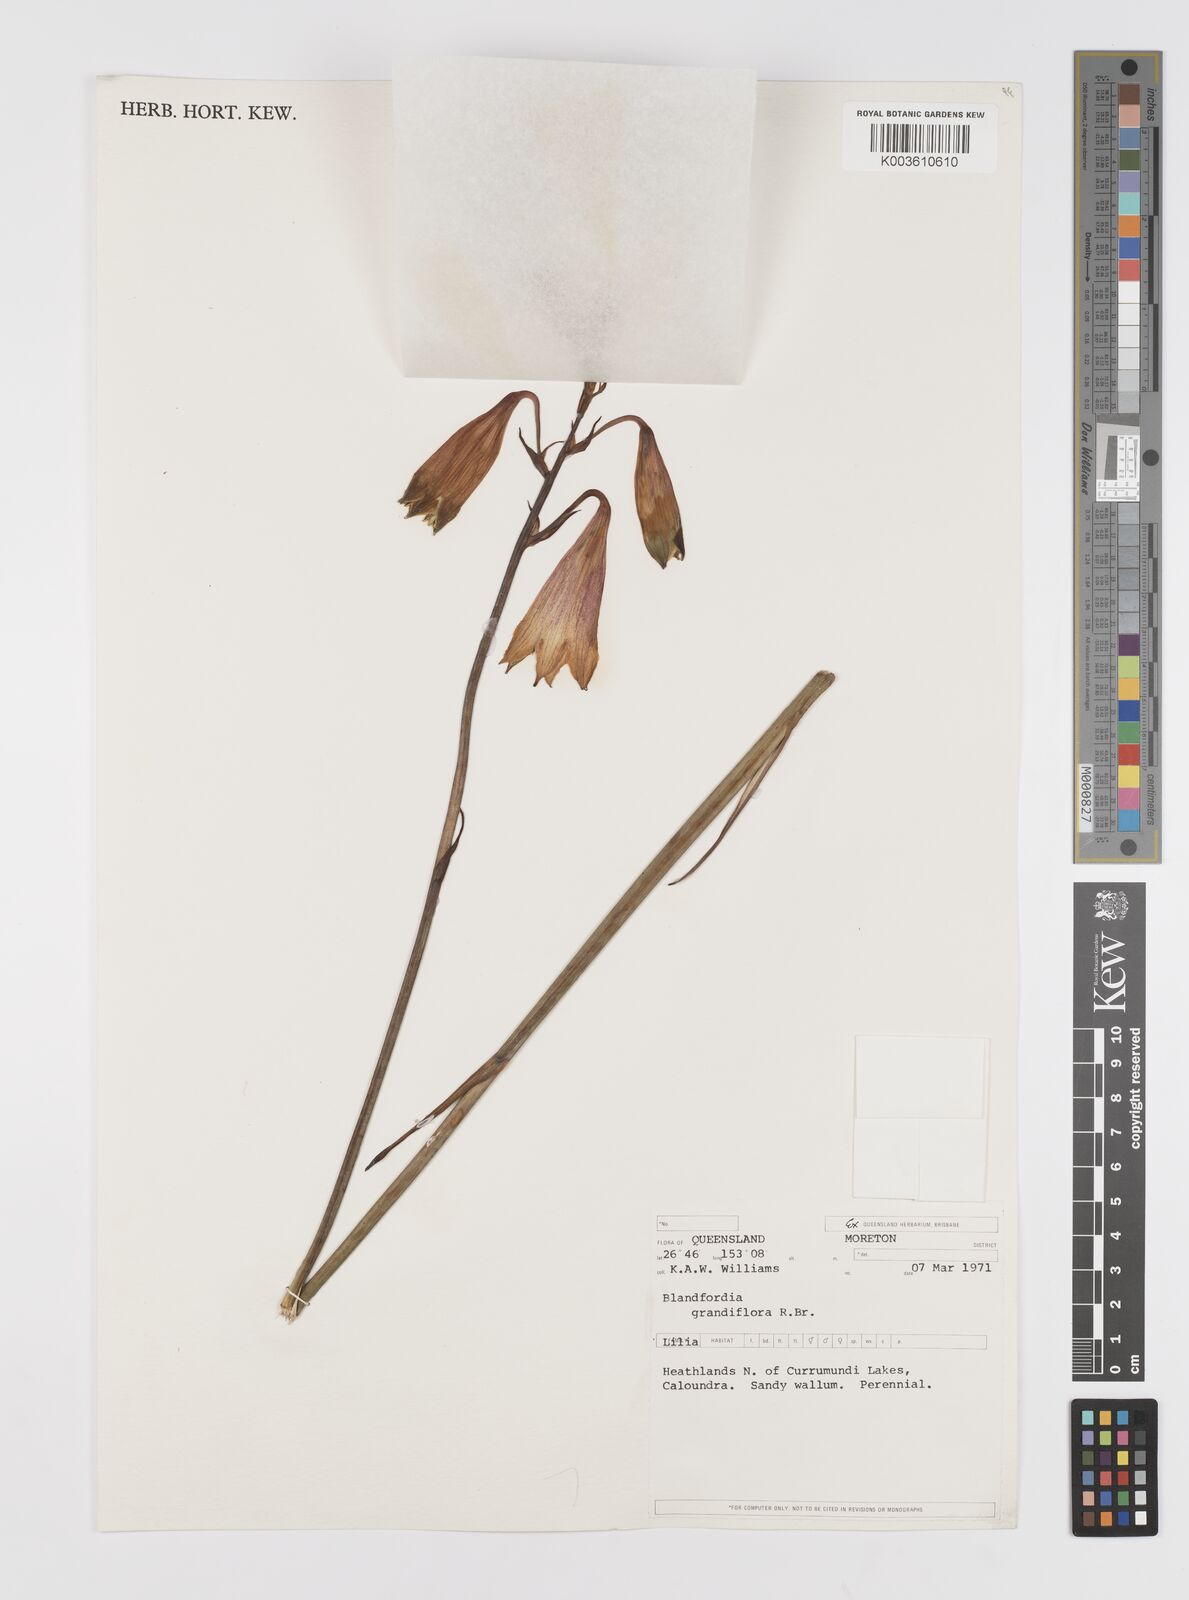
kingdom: Plantae
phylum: Tracheophyta
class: Liliopsida
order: Asparagales
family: Blandfordiaceae
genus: Blandfordia
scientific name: Blandfordia grandiflora
